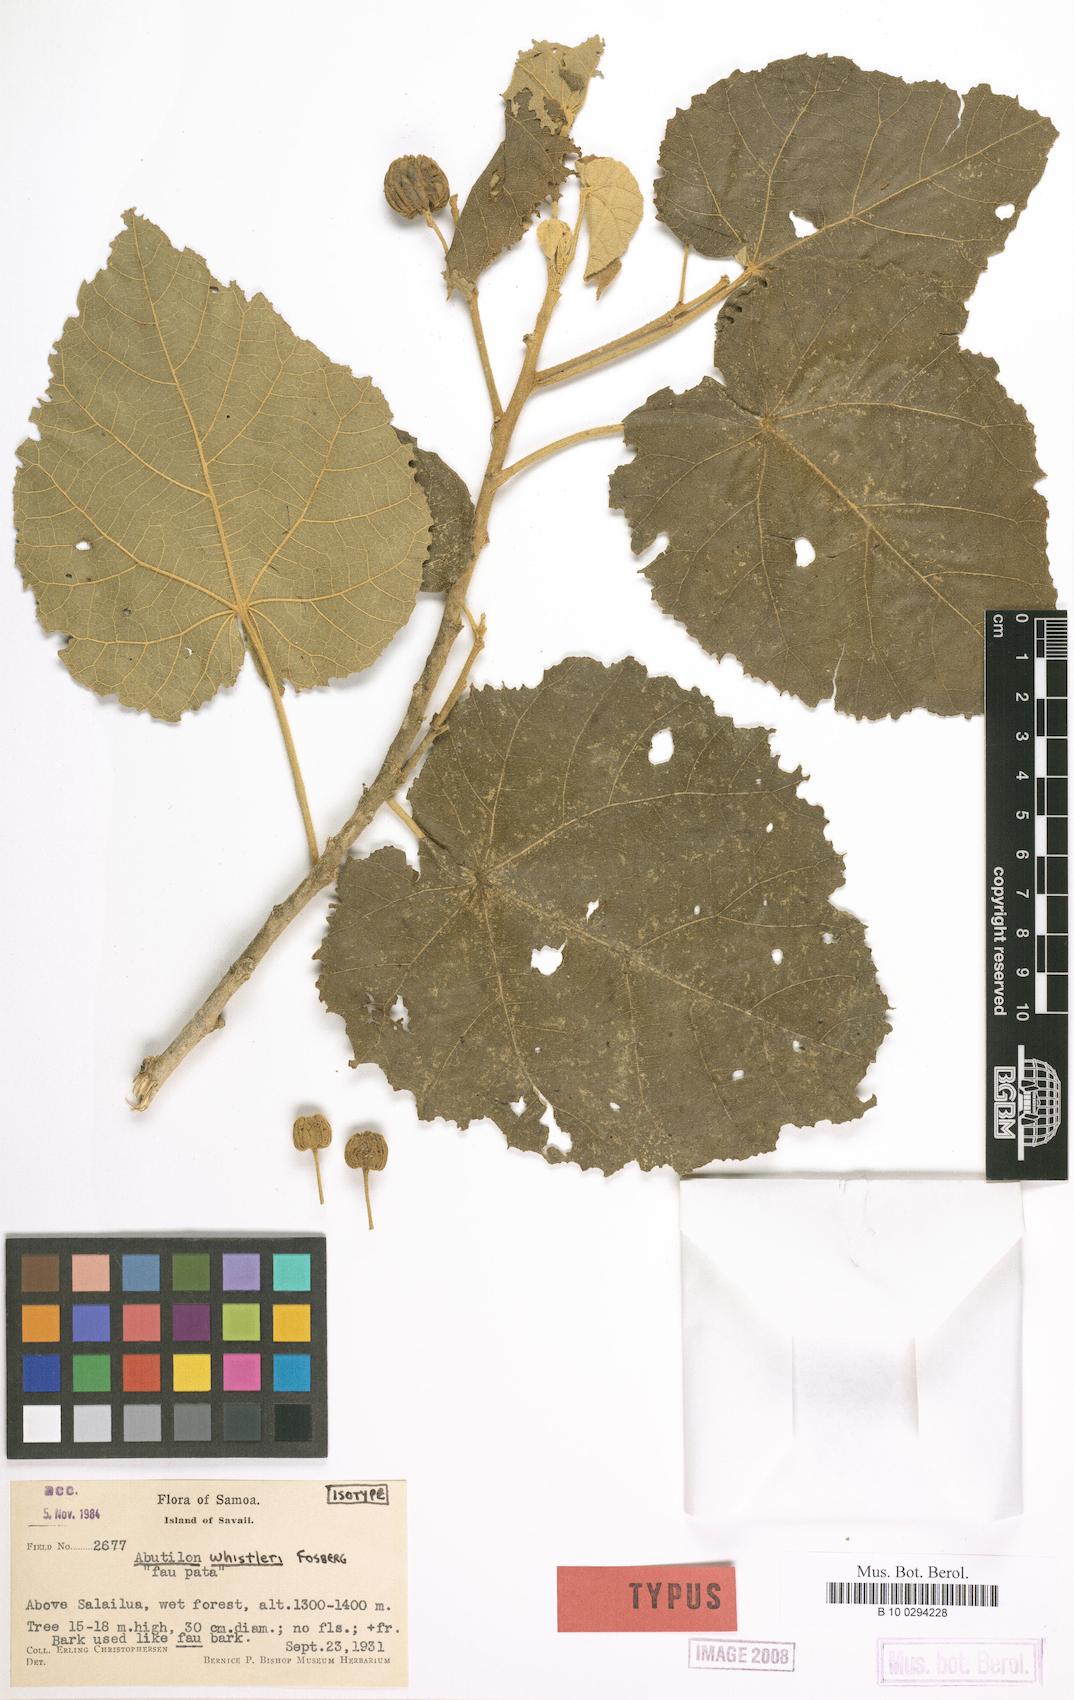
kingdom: Plantae
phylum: Tracheophyta
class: Magnoliopsida
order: Malvales
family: Malvaceae
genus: Abutilon
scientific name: Abutilon whistleri
